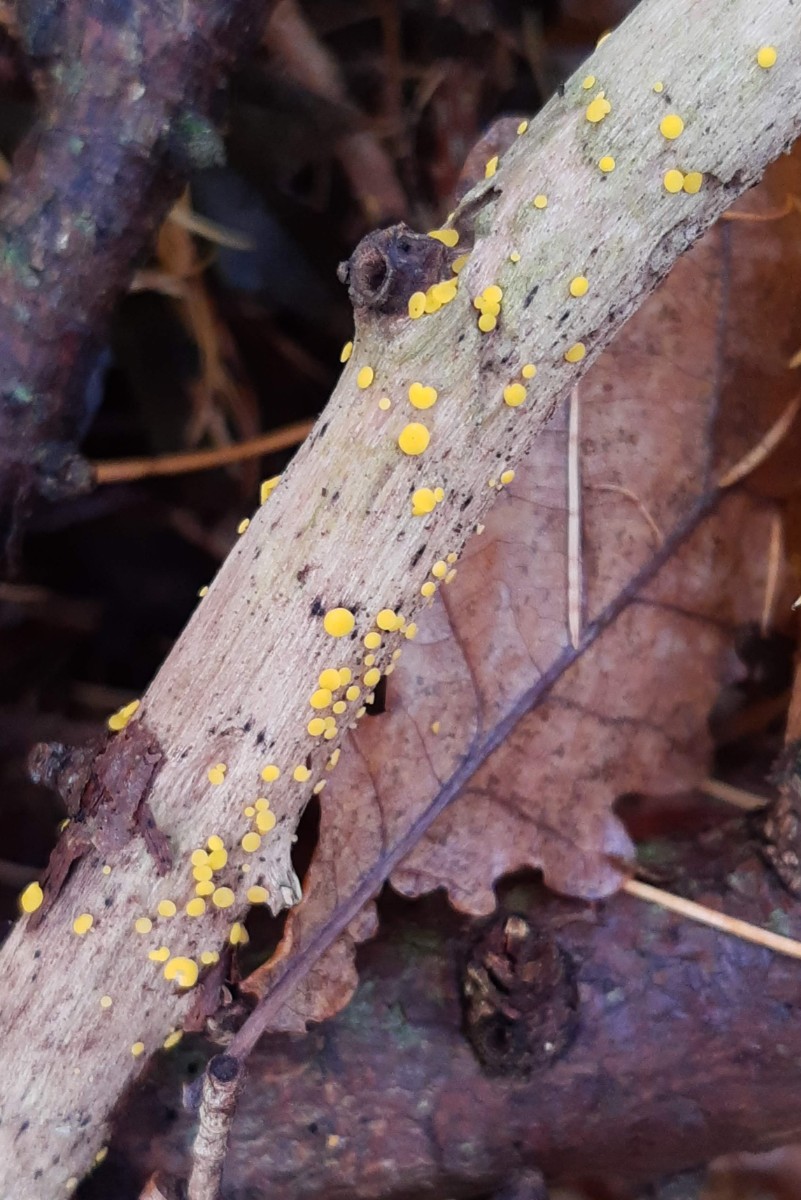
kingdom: Fungi
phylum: Ascomycota
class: Leotiomycetes
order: Helotiales
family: Pezizellaceae
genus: Calycina
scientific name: Calycina citrina
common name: almindelig gulskive
